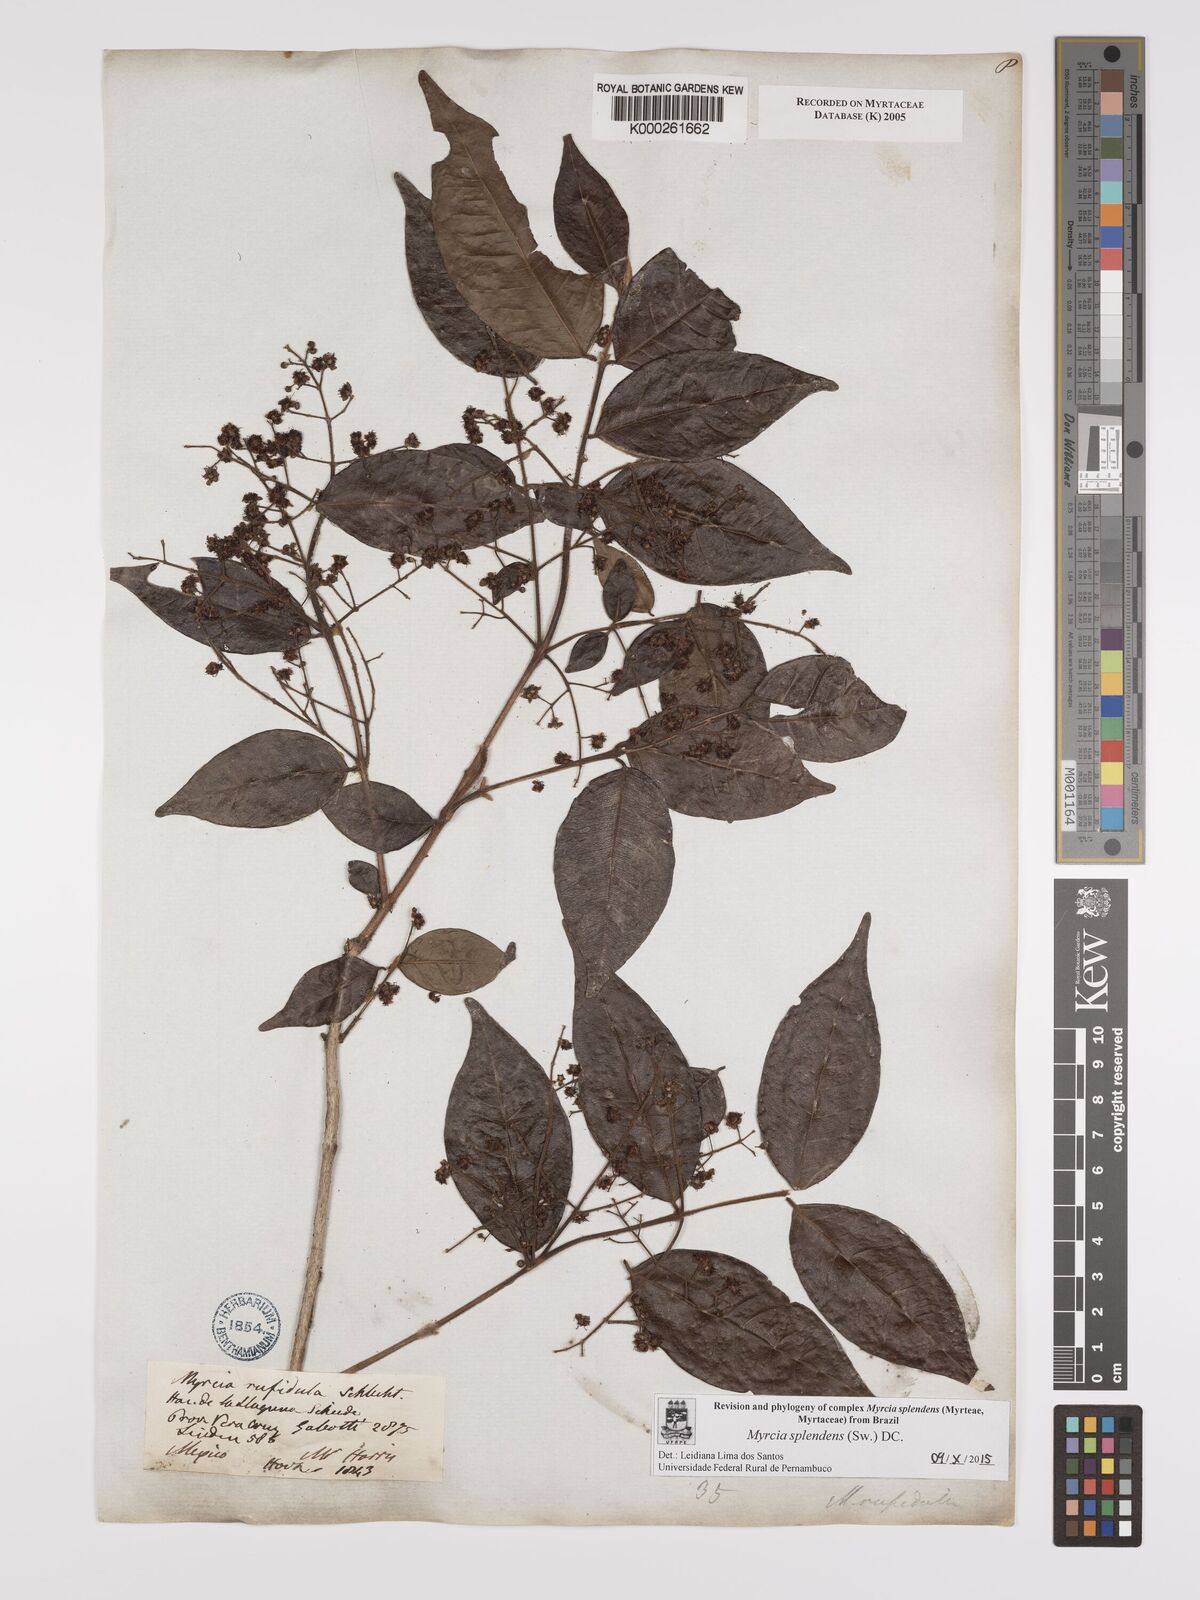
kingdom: Plantae
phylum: Tracheophyta
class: Magnoliopsida
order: Myrtales
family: Myrtaceae
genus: Myrcia
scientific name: Myrcia splendens
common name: Surinam cherry
